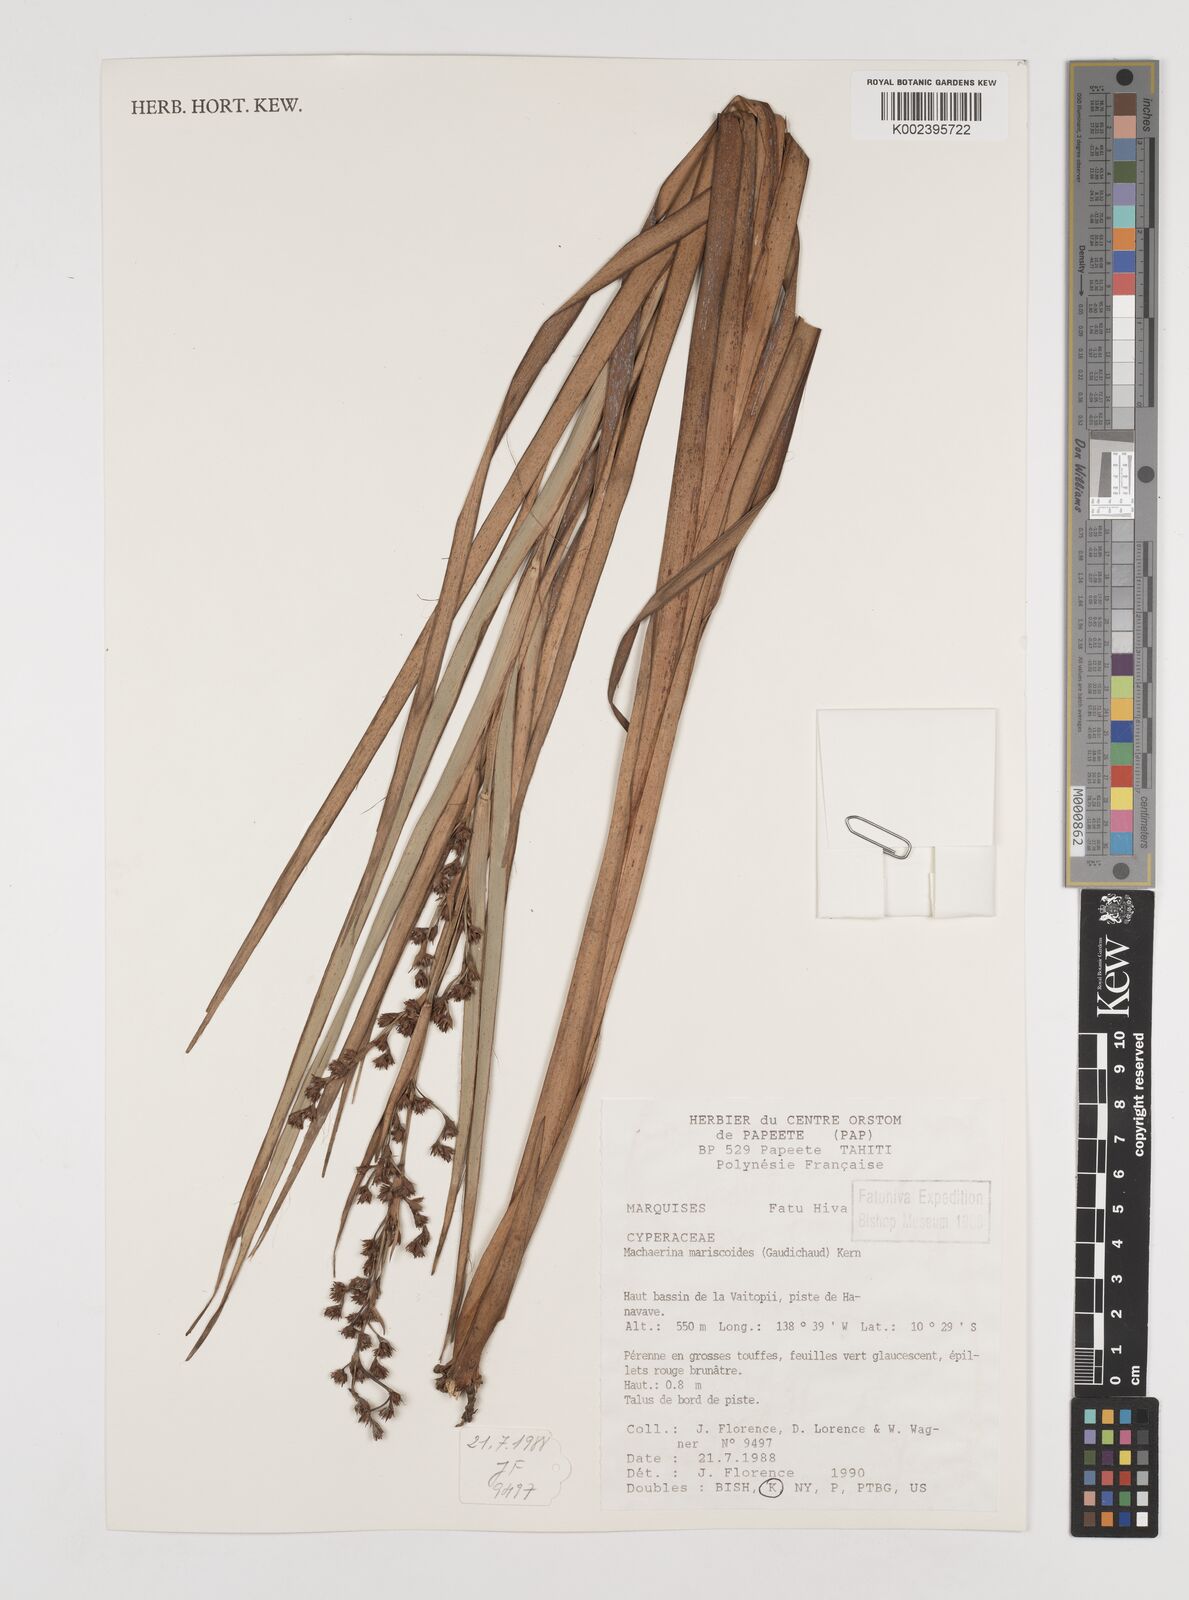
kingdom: Plantae
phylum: Tracheophyta
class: Liliopsida
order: Poales
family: Cyperaceae
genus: Machaerina
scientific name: Machaerina
